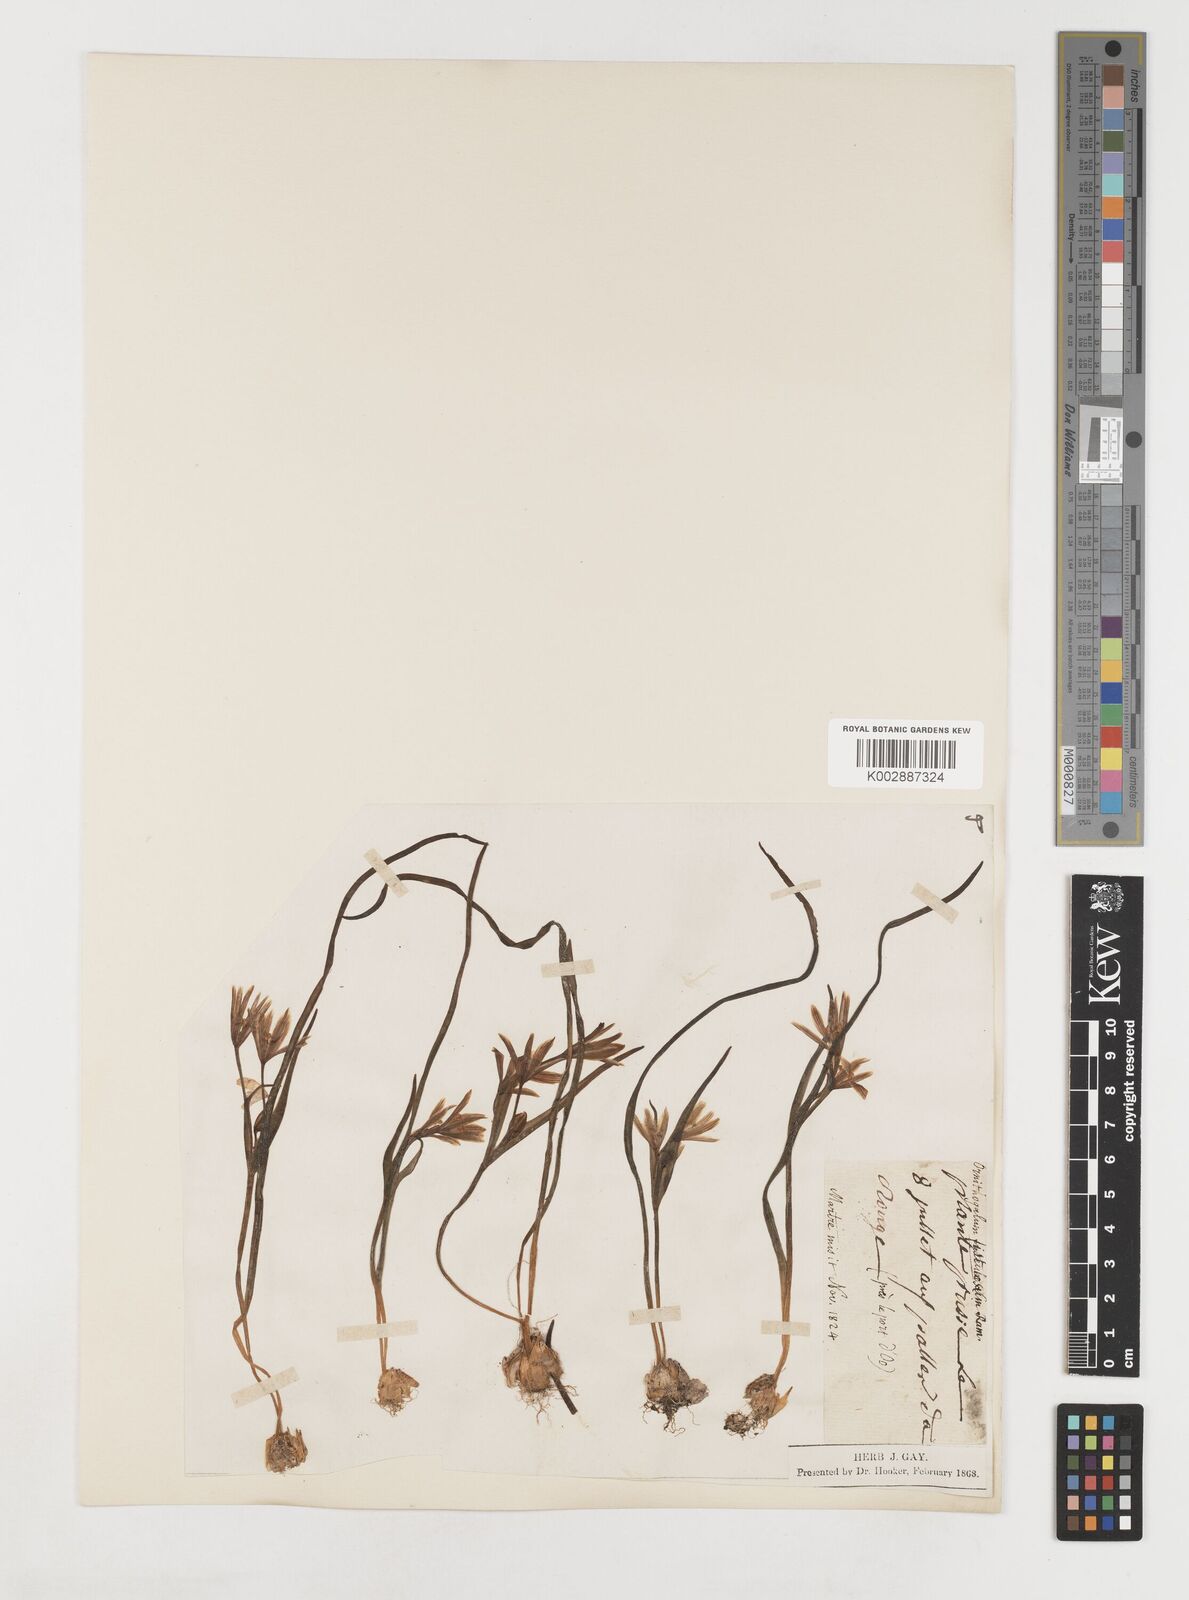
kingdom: Plantae
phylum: Tracheophyta
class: Liliopsida
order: Liliales
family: Liliaceae
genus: Gagea
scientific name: Gagea bohemica
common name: Early star-of-bethlehem
